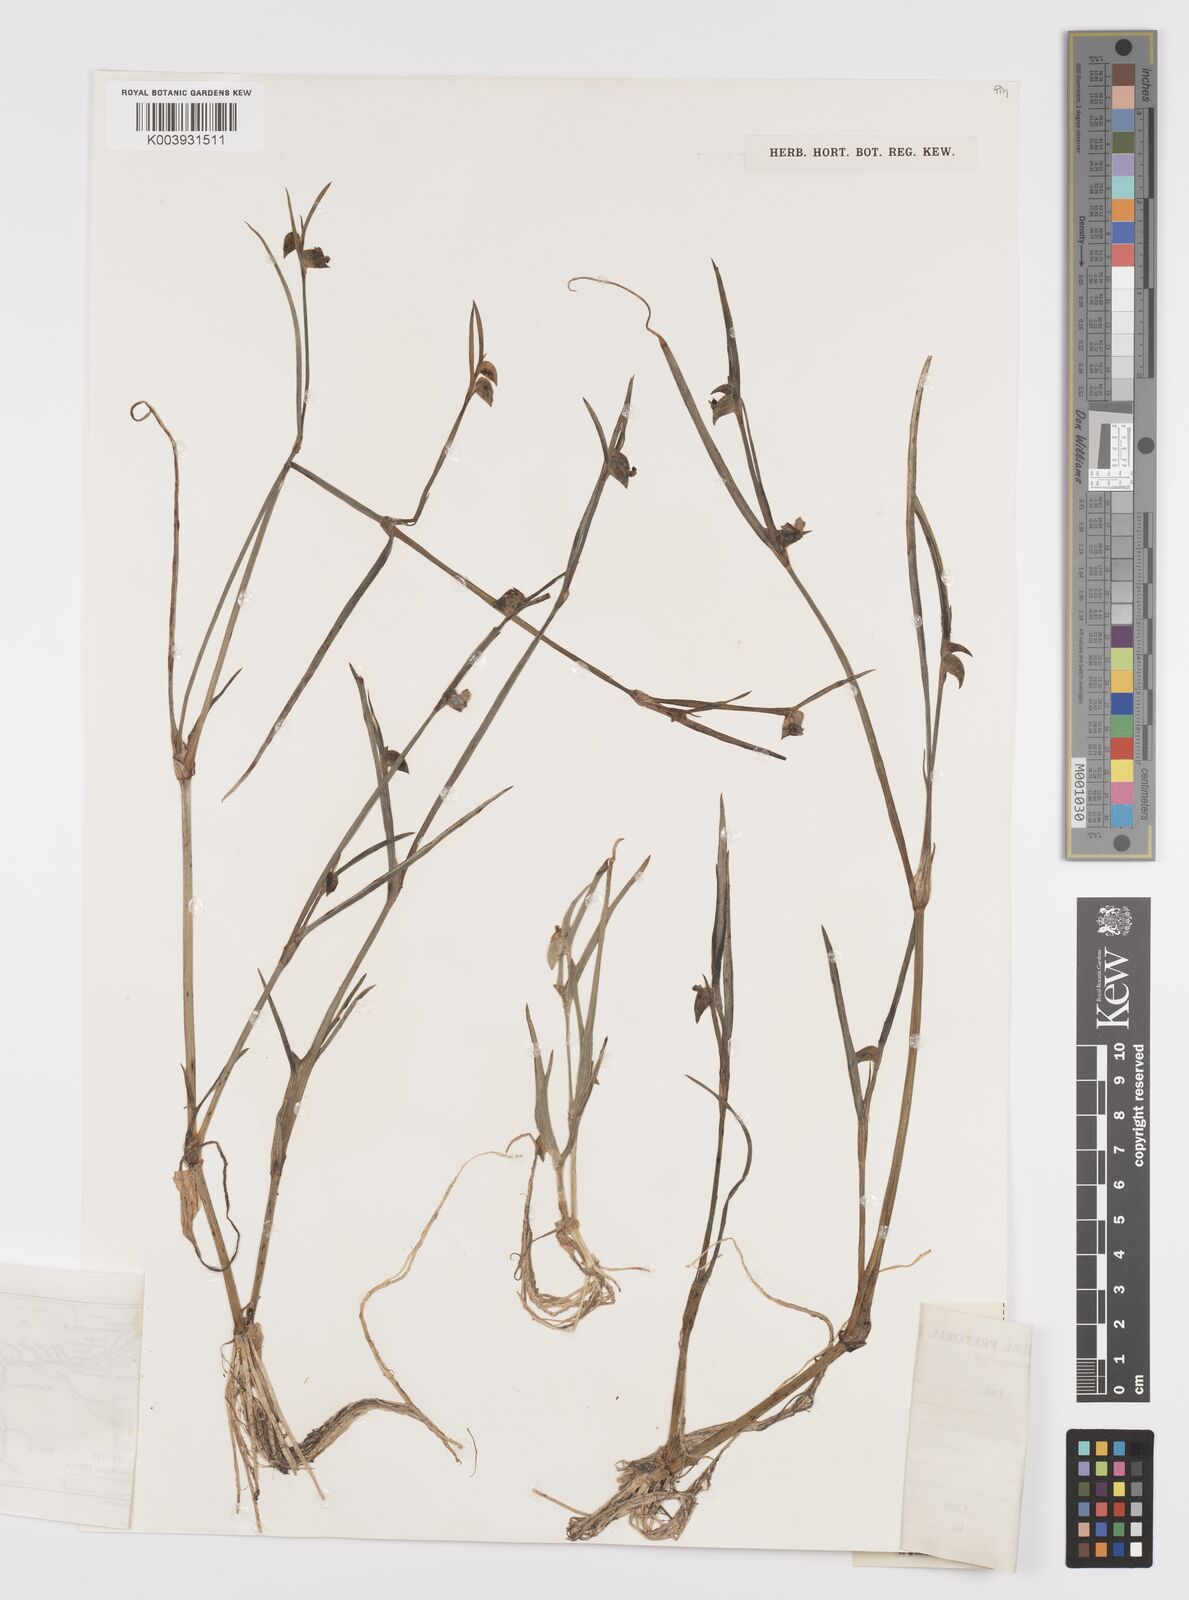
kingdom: Plantae
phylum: Tracheophyta
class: Liliopsida
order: Commelinales
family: Commelinaceae
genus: Commelina
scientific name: Commelina subulata
